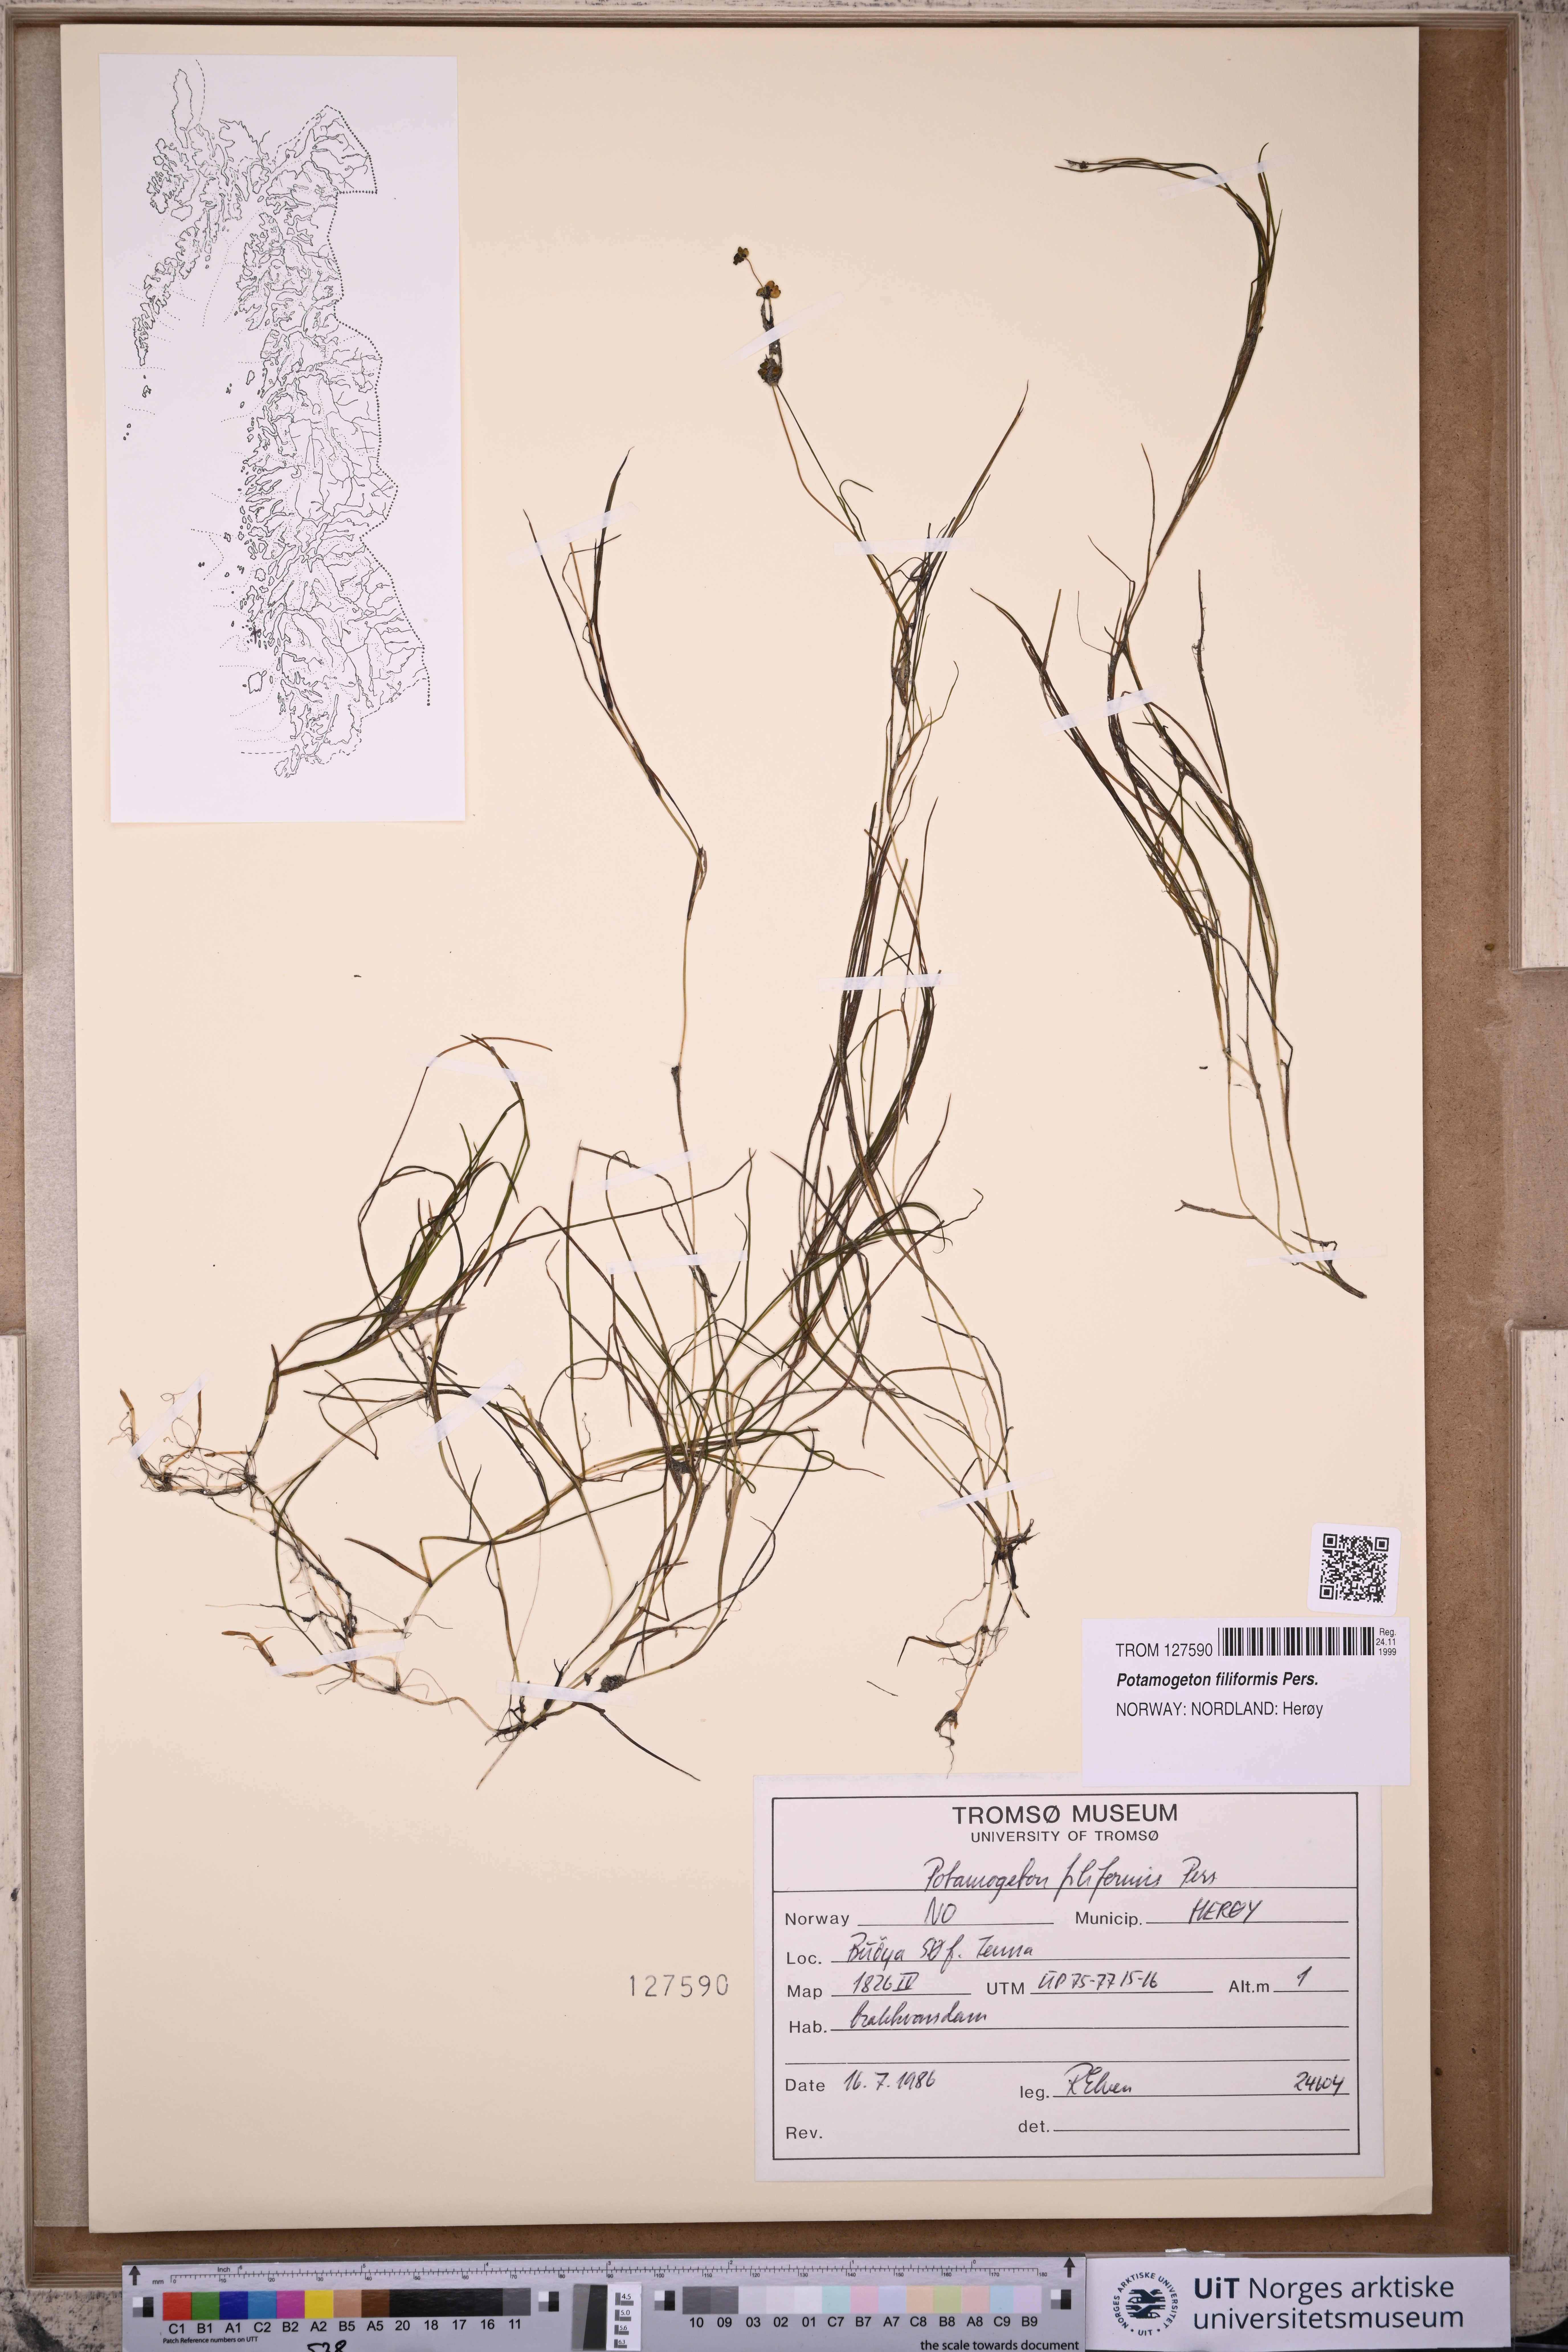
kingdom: Plantae
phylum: Tracheophyta
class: Liliopsida
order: Alismatales
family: Potamogetonaceae
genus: Stuckenia
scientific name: Stuckenia filiformis
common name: Alpine thread-leaved pondweed
